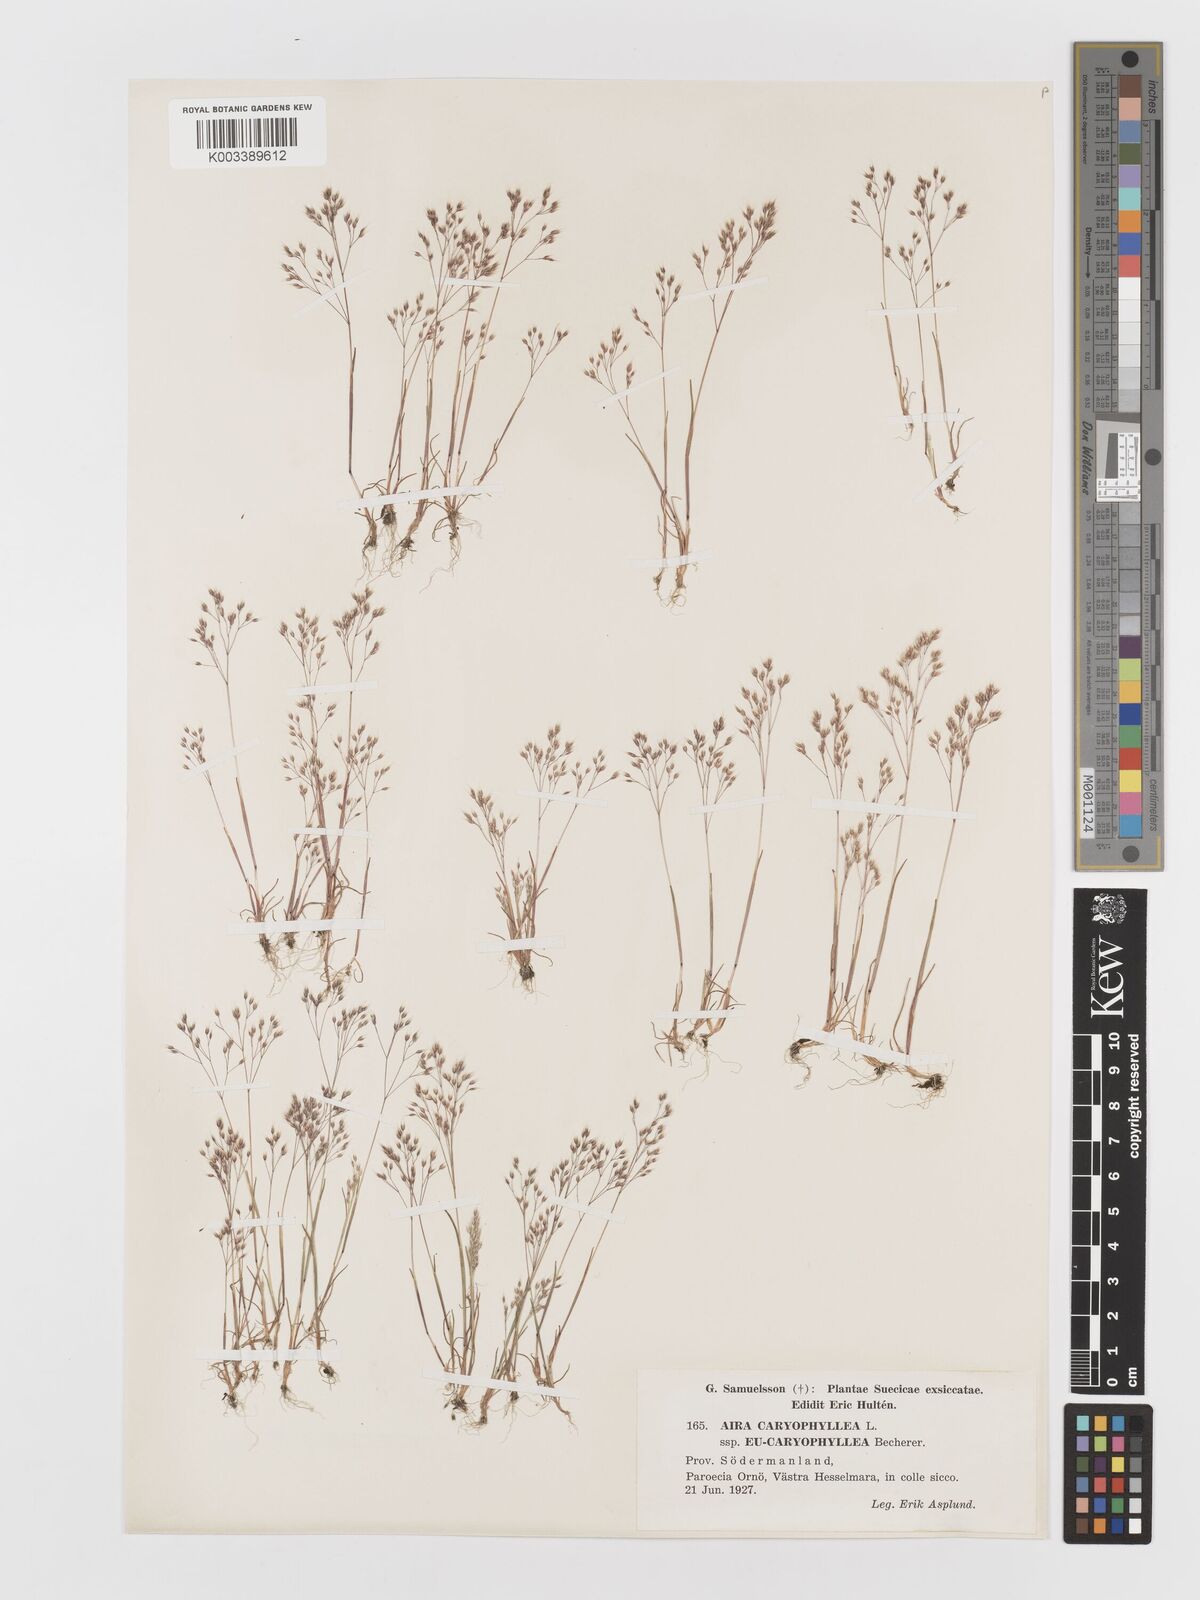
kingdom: Plantae
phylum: Tracheophyta
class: Liliopsida
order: Poales
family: Poaceae
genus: Aira
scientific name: Aira caryophyllea
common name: Silver hairgrass
